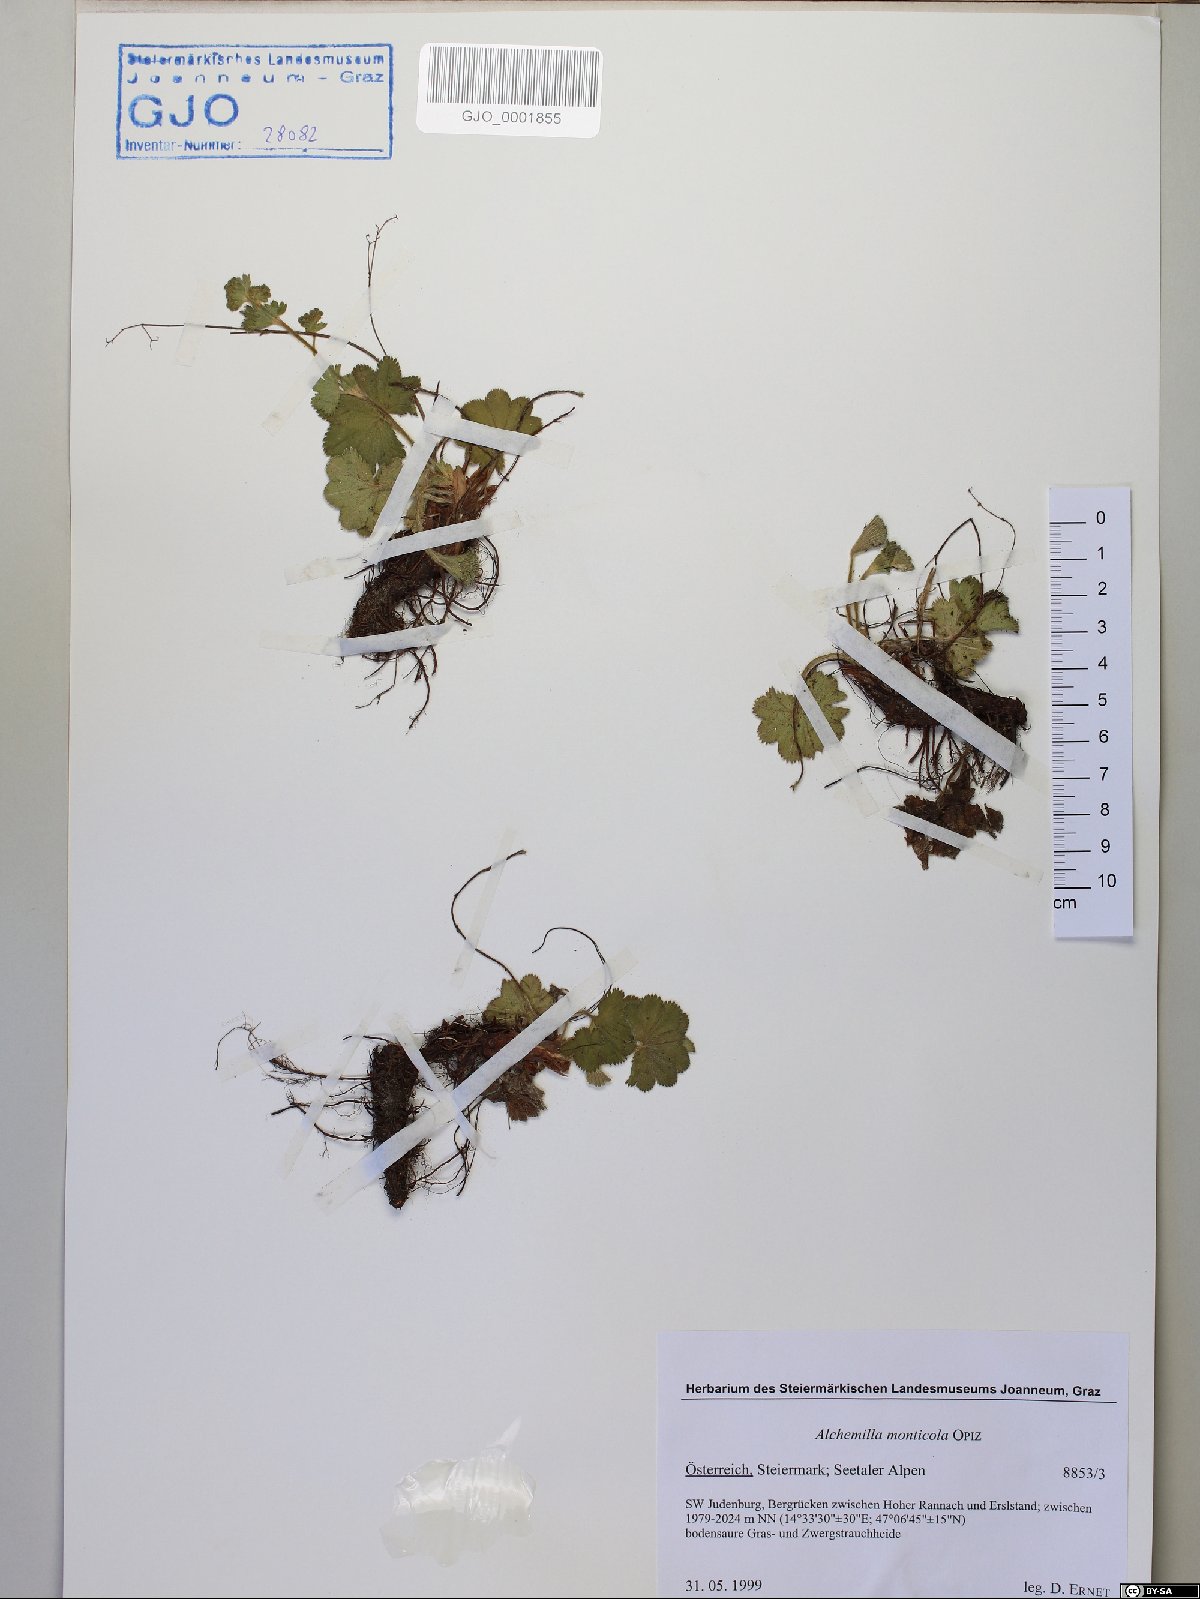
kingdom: Plantae
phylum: Tracheophyta
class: Magnoliopsida
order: Rosales
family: Rosaceae
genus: Alchemilla
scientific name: Alchemilla monticola
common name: Hairy lady's mantle
